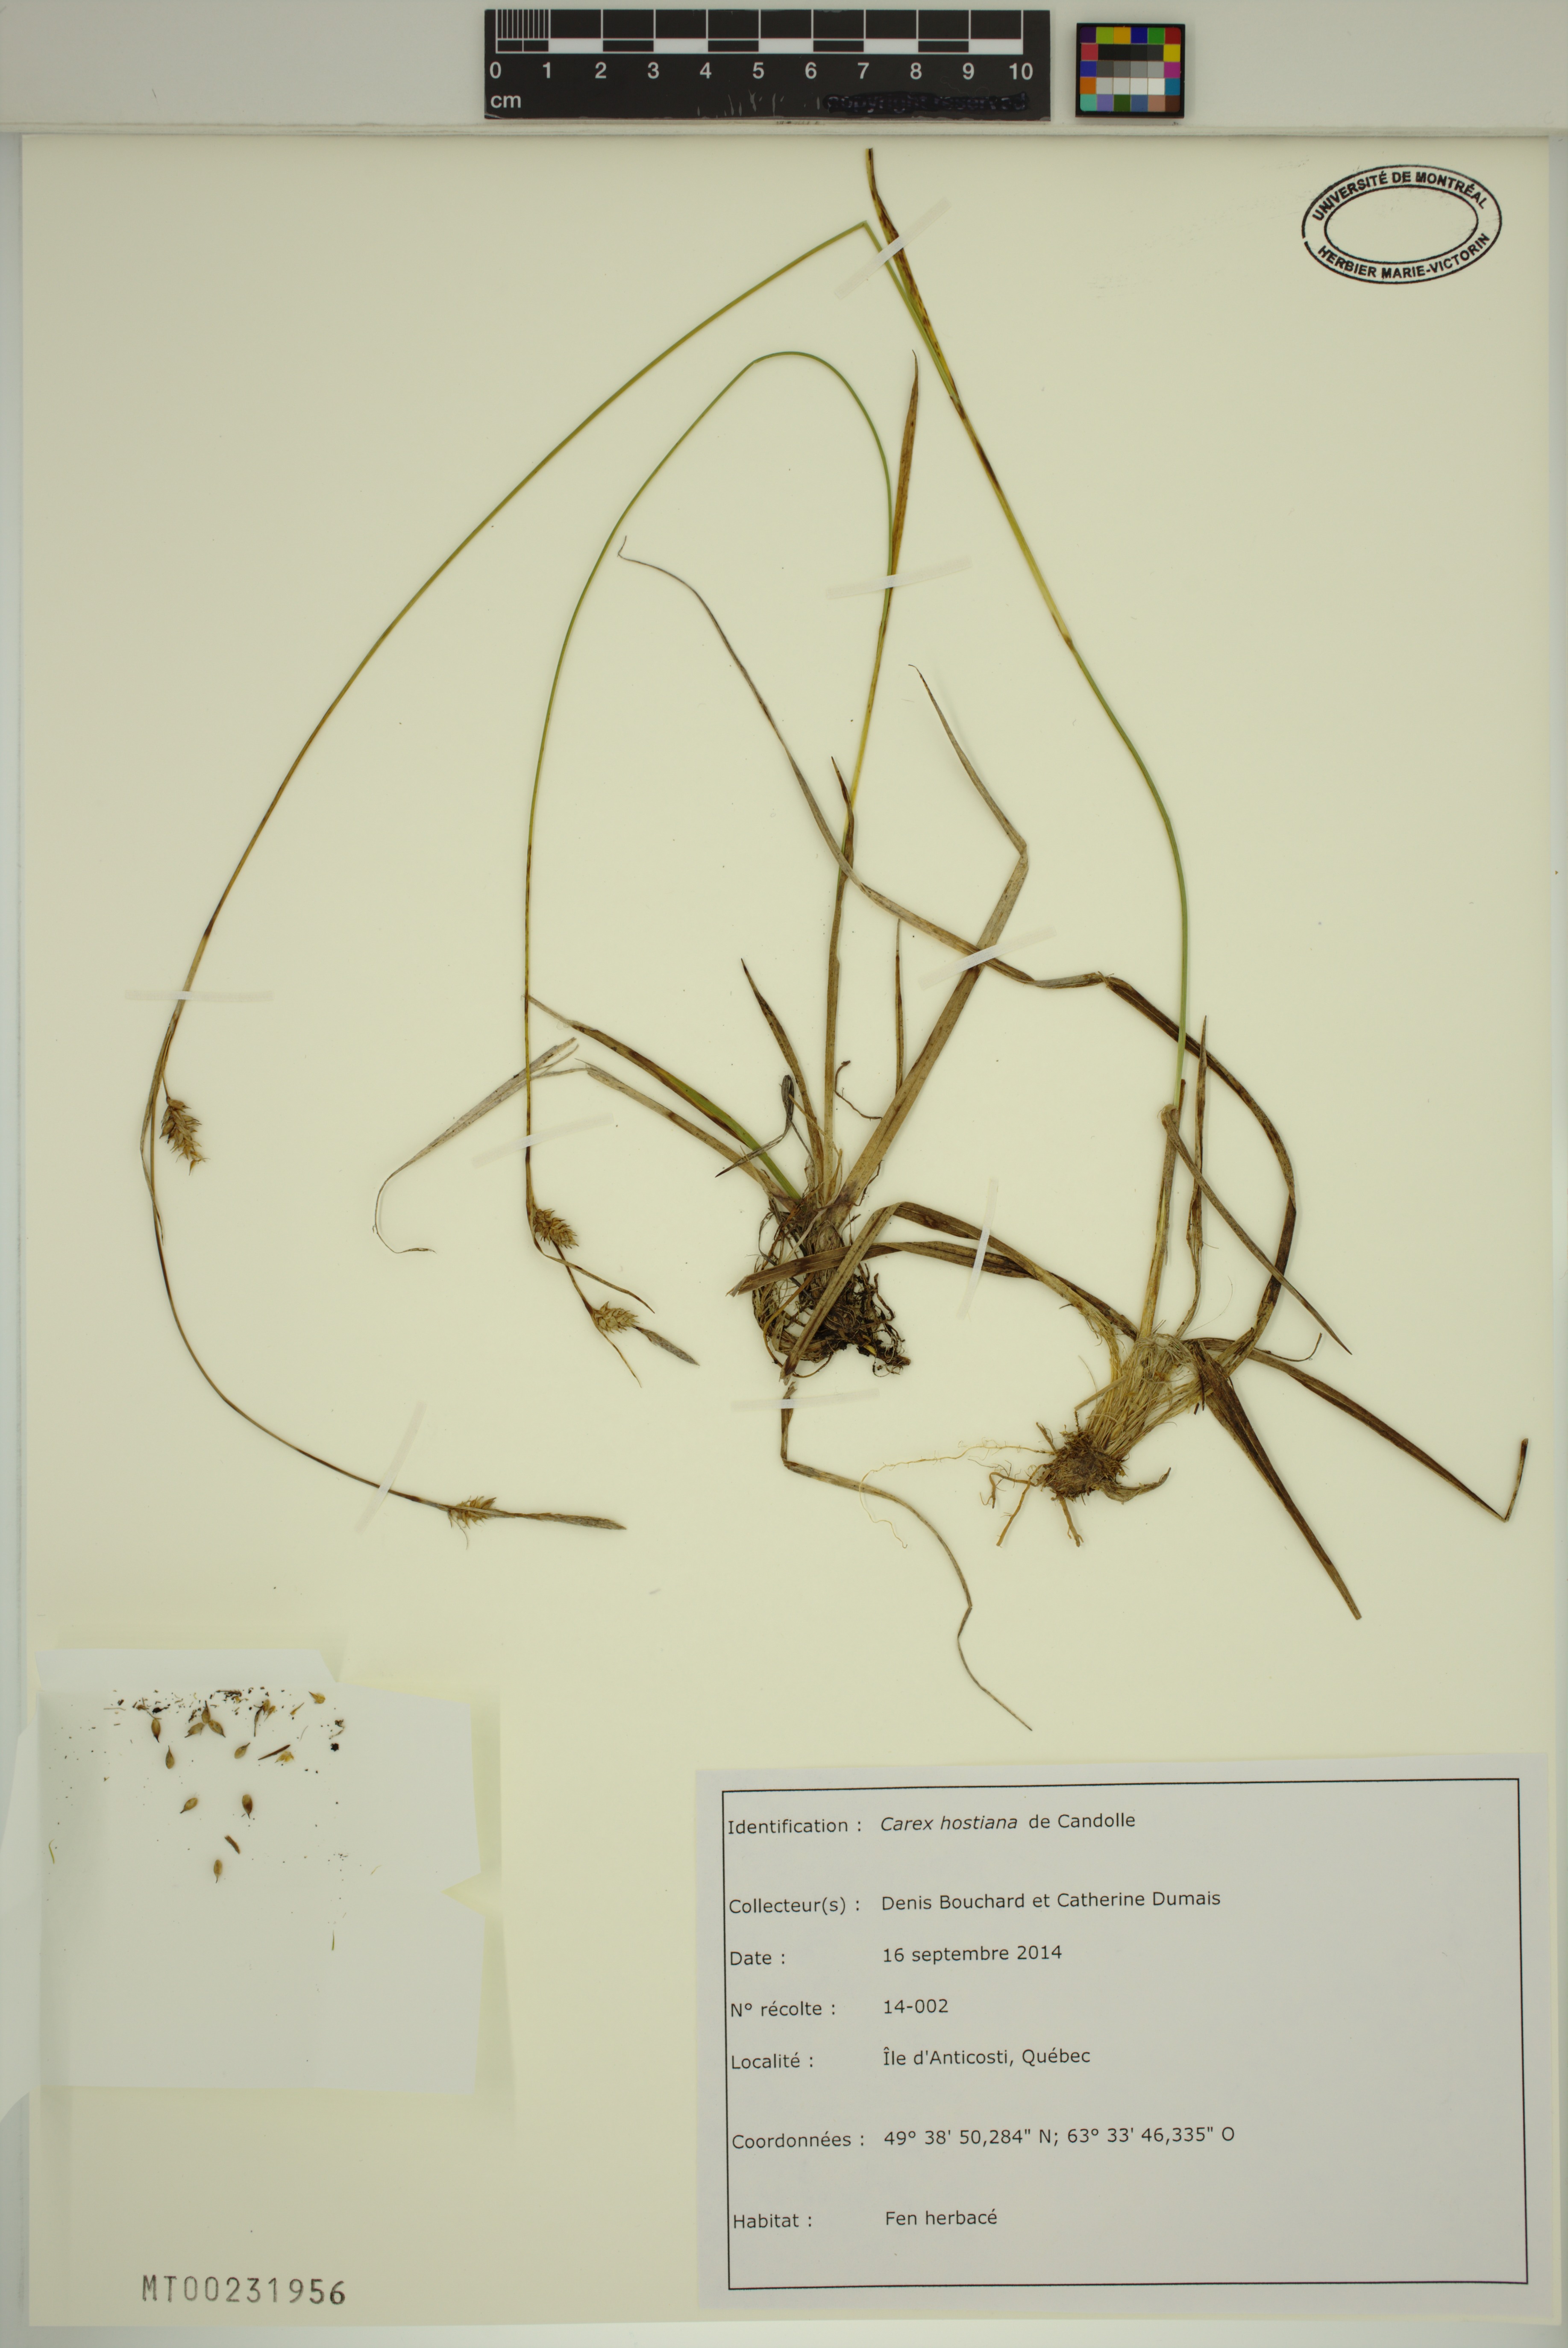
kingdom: Plantae
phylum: Tracheophyta
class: Liliopsida
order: Poales
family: Cyperaceae
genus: Carex
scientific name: Carex hostiana
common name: Tawny sedge
